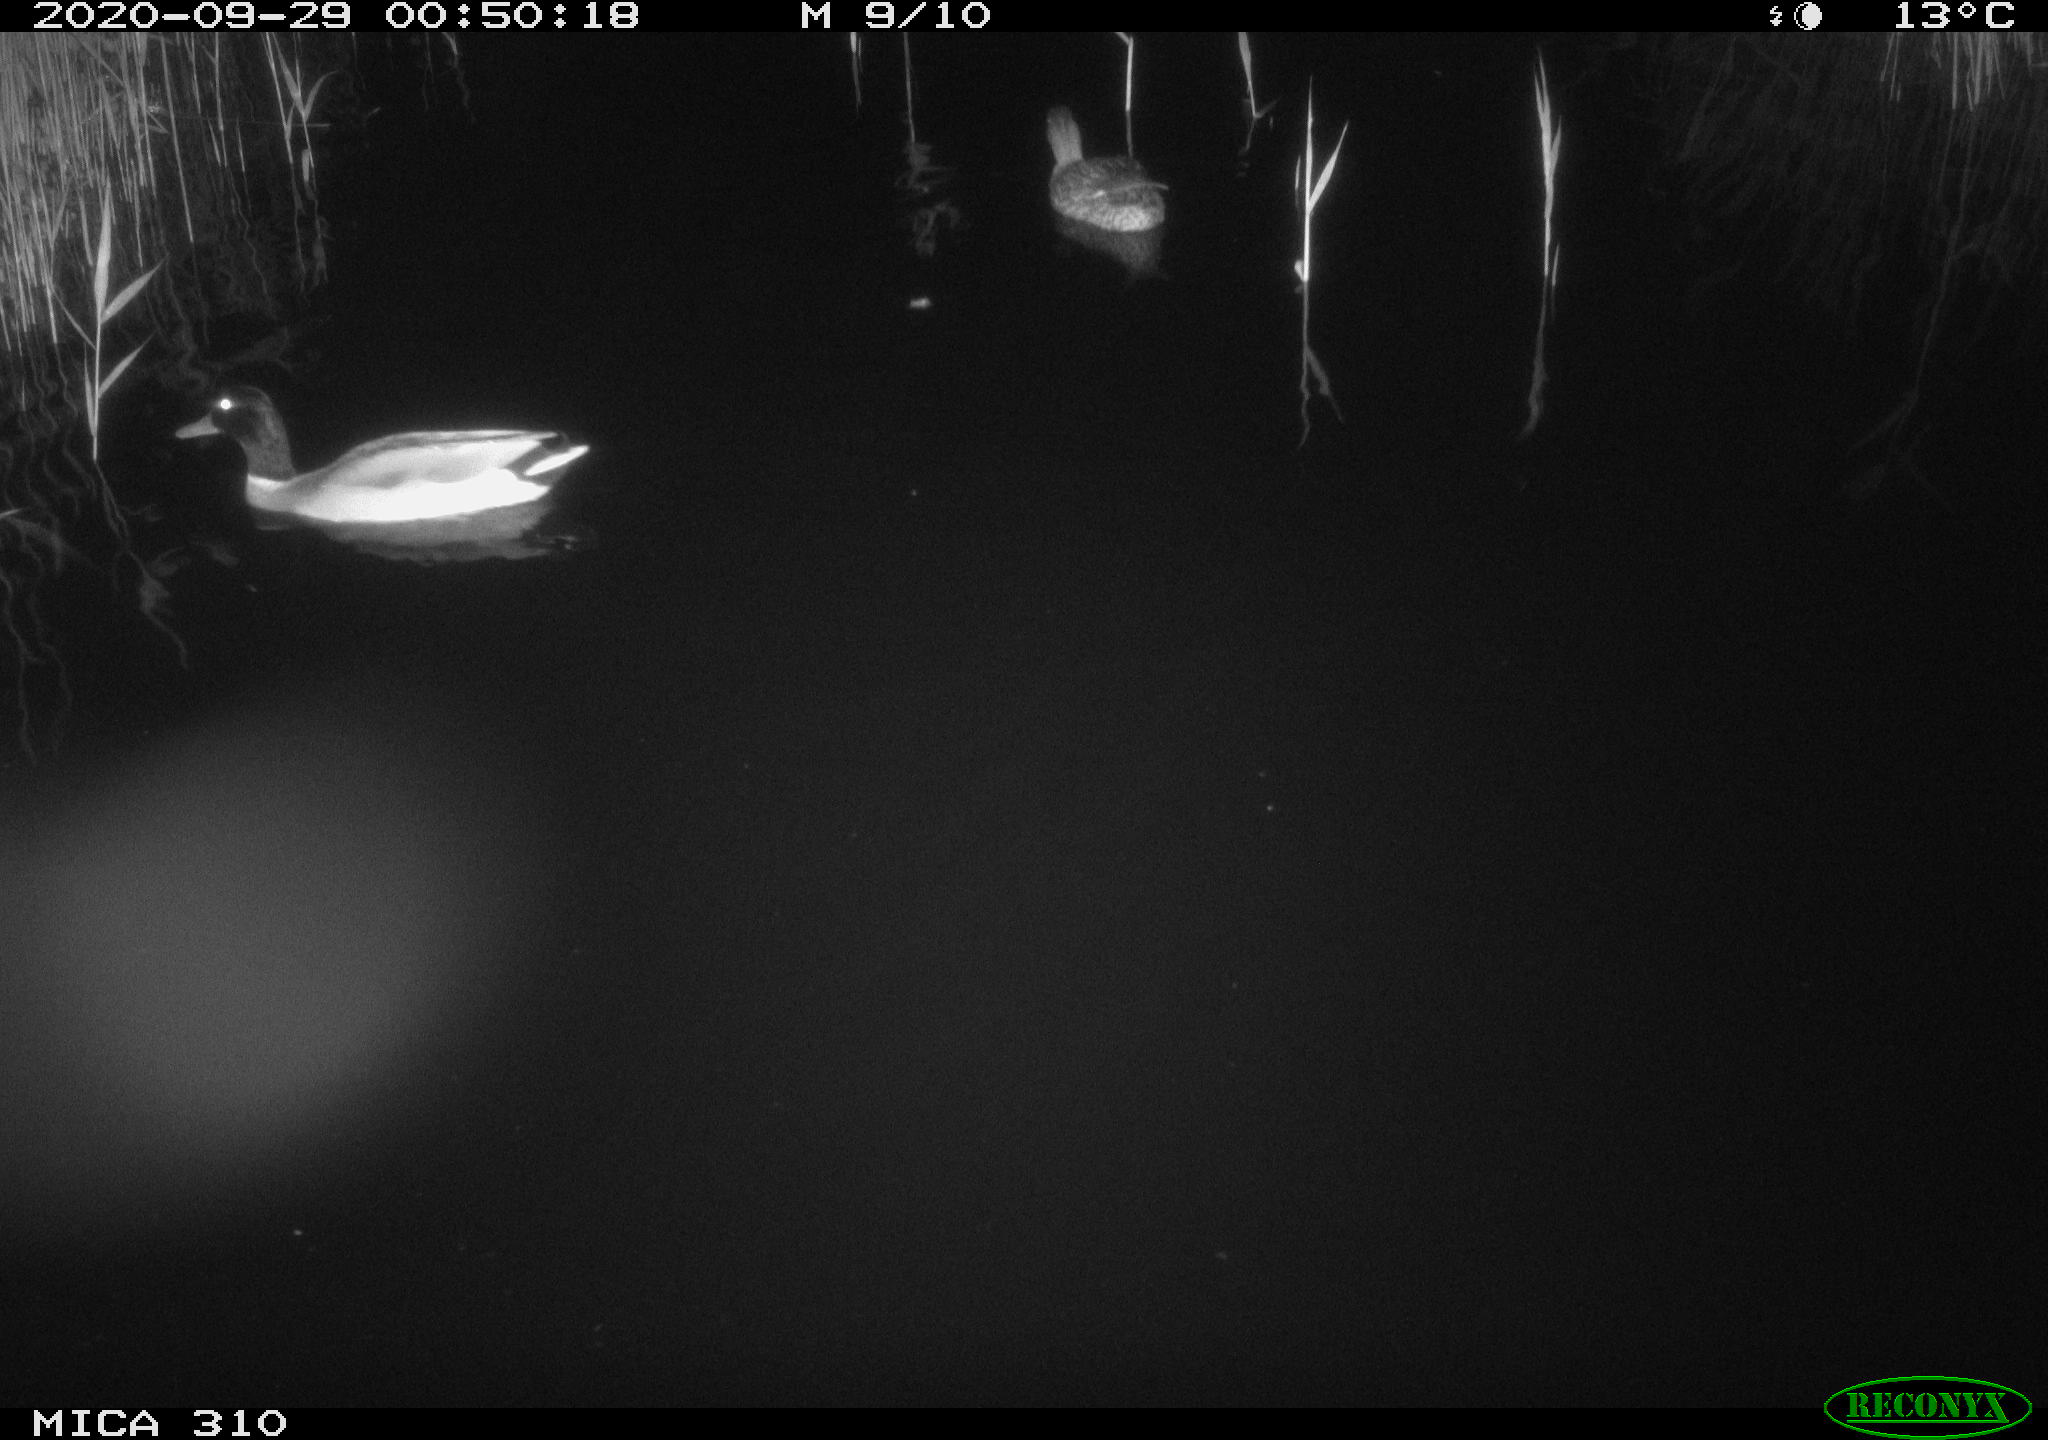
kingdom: Animalia
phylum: Chordata
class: Aves
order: Anseriformes
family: Anatidae
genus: Anas
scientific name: Anas platyrhynchos
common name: Mallard
